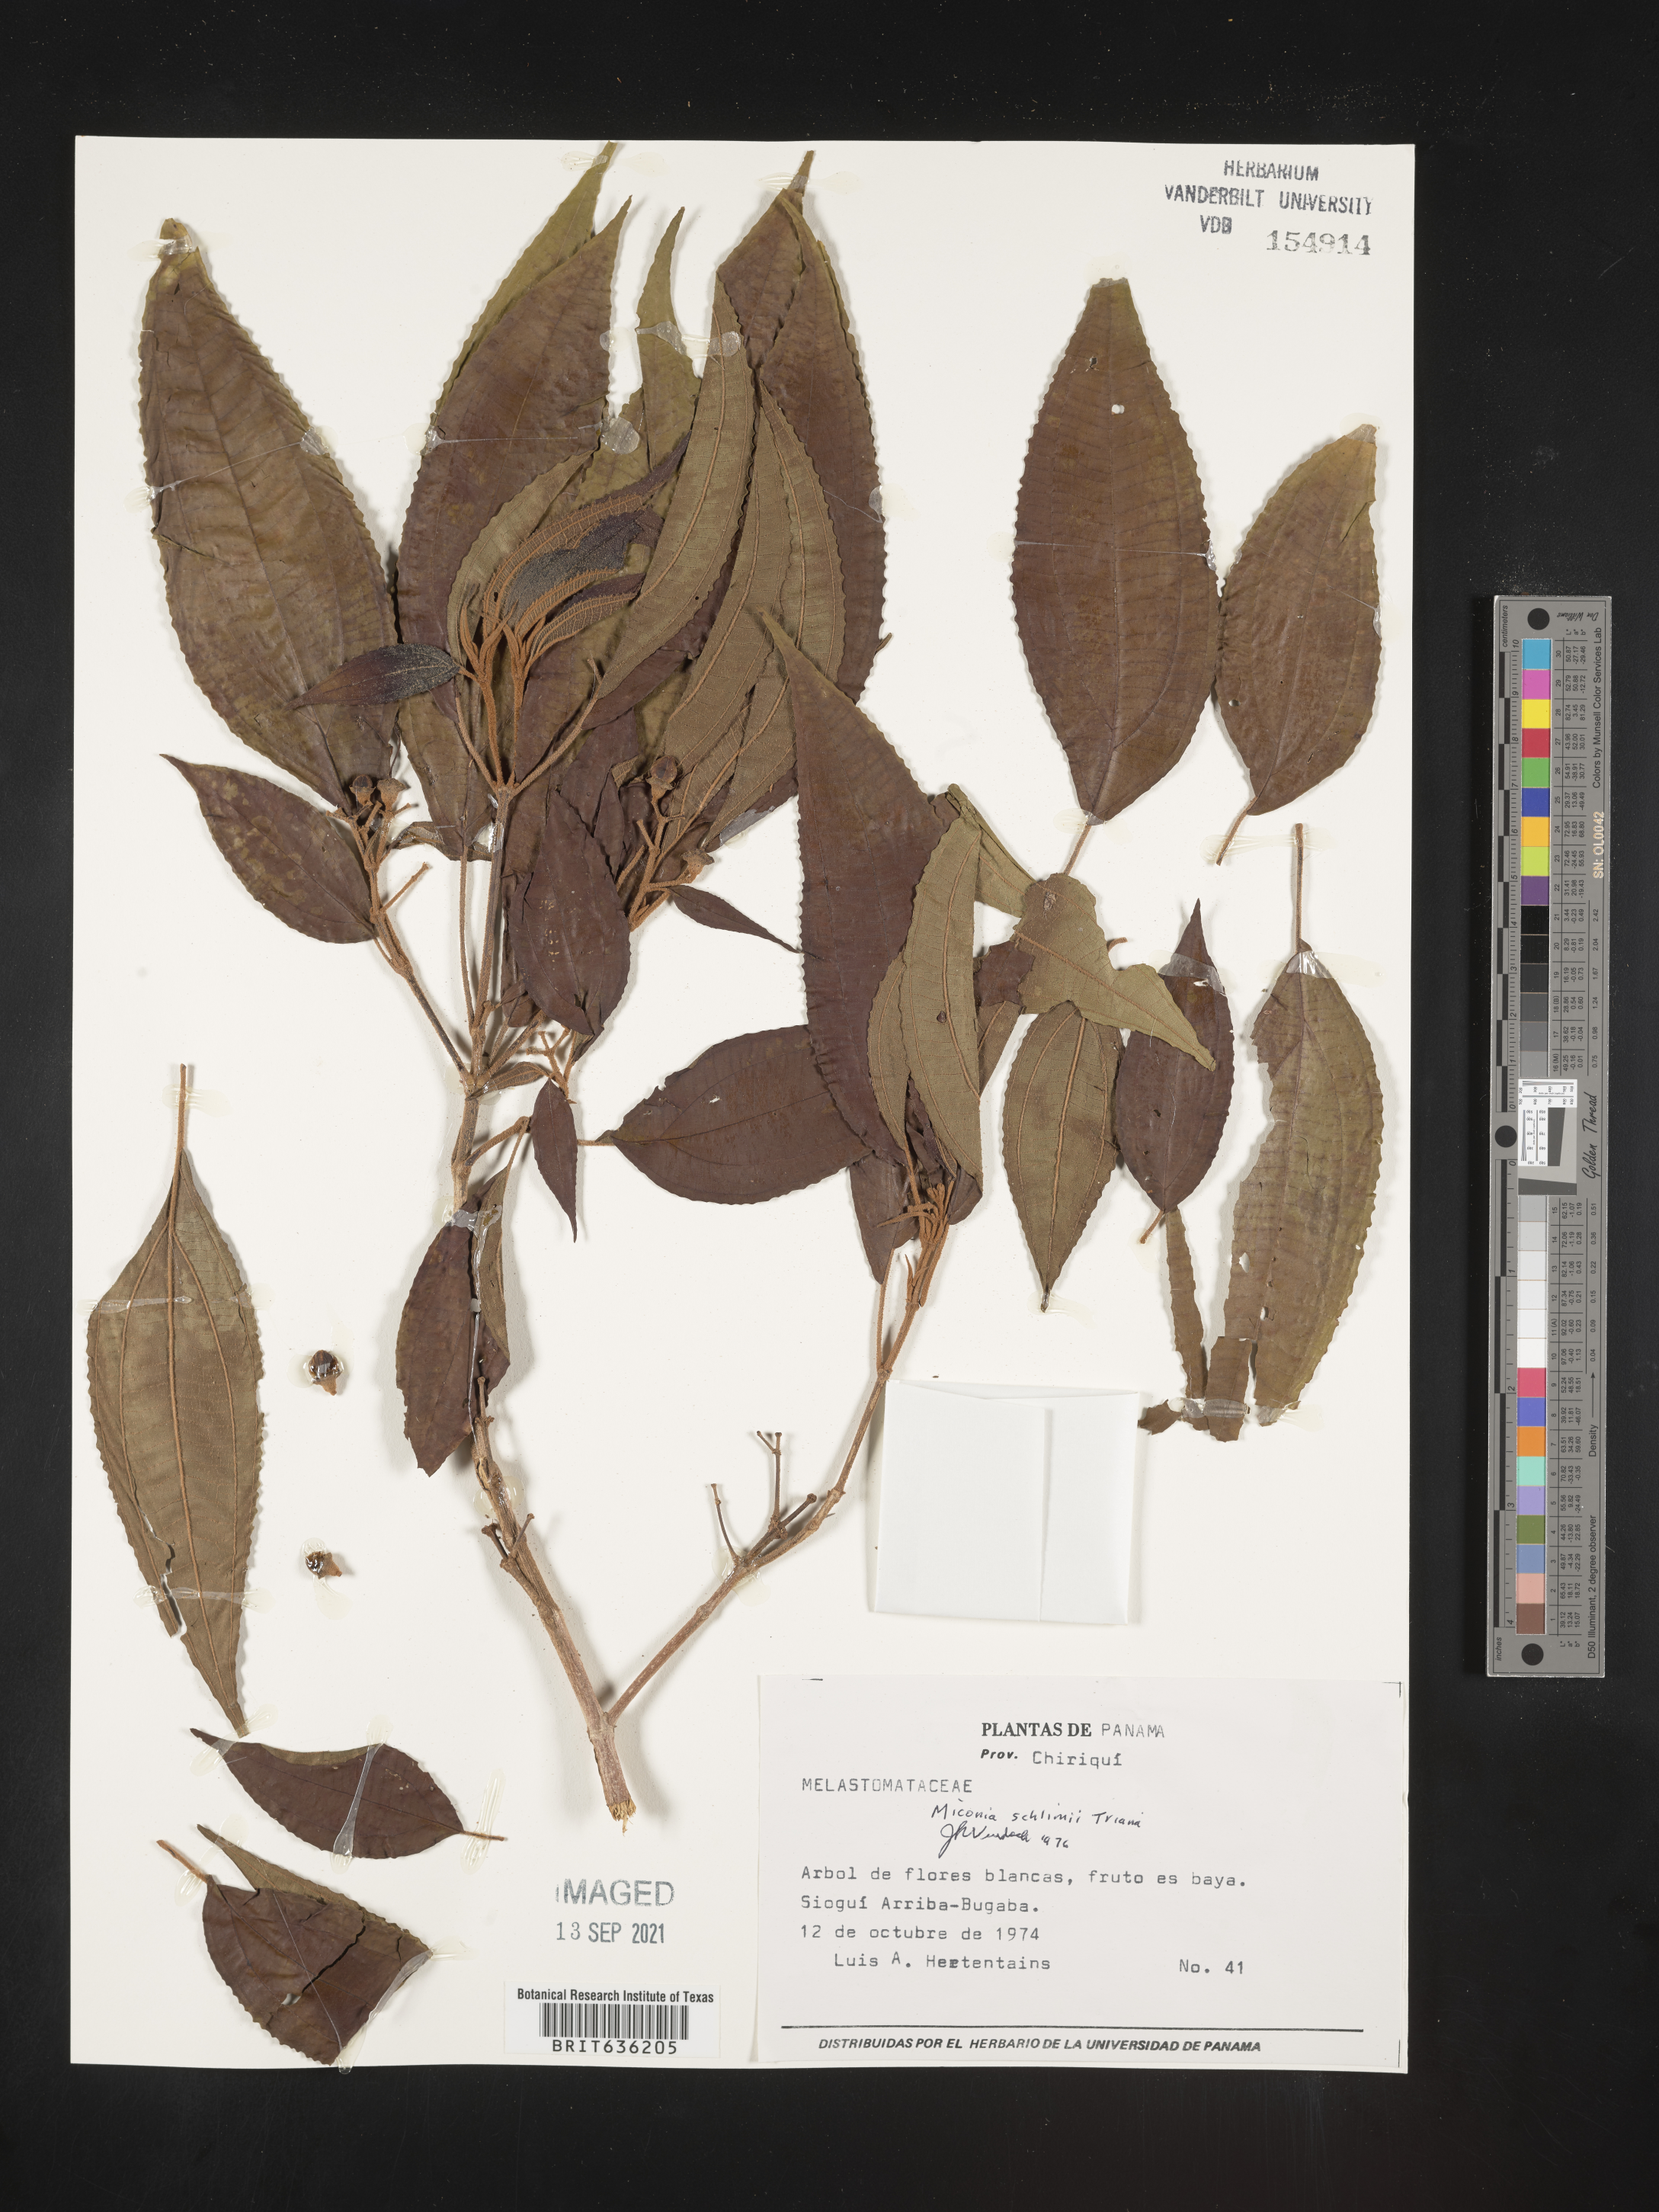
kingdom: Plantae
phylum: Tracheophyta
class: Magnoliopsida
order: Myrtales
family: Melastomataceae
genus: Miconia
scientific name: Miconia
